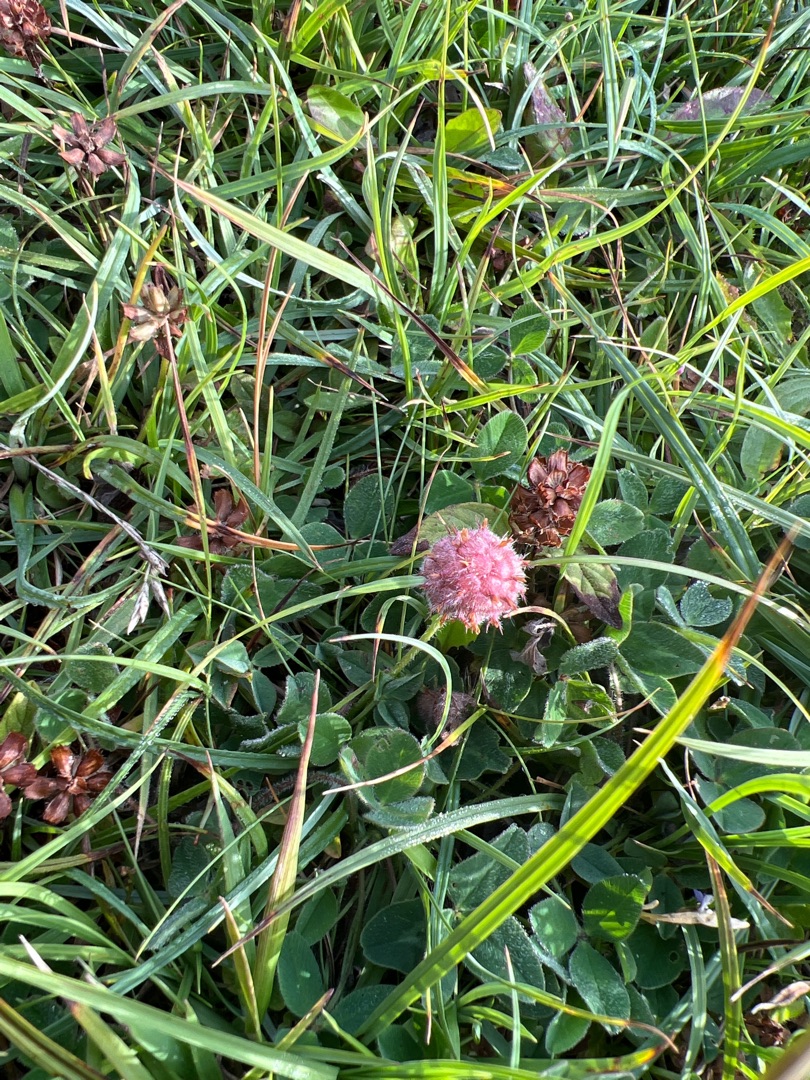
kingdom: Plantae
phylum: Tracheophyta
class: Magnoliopsida
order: Fabales
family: Fabaceae
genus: Trifolium
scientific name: Trifolium fragiferum
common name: Jordbær-kløver
